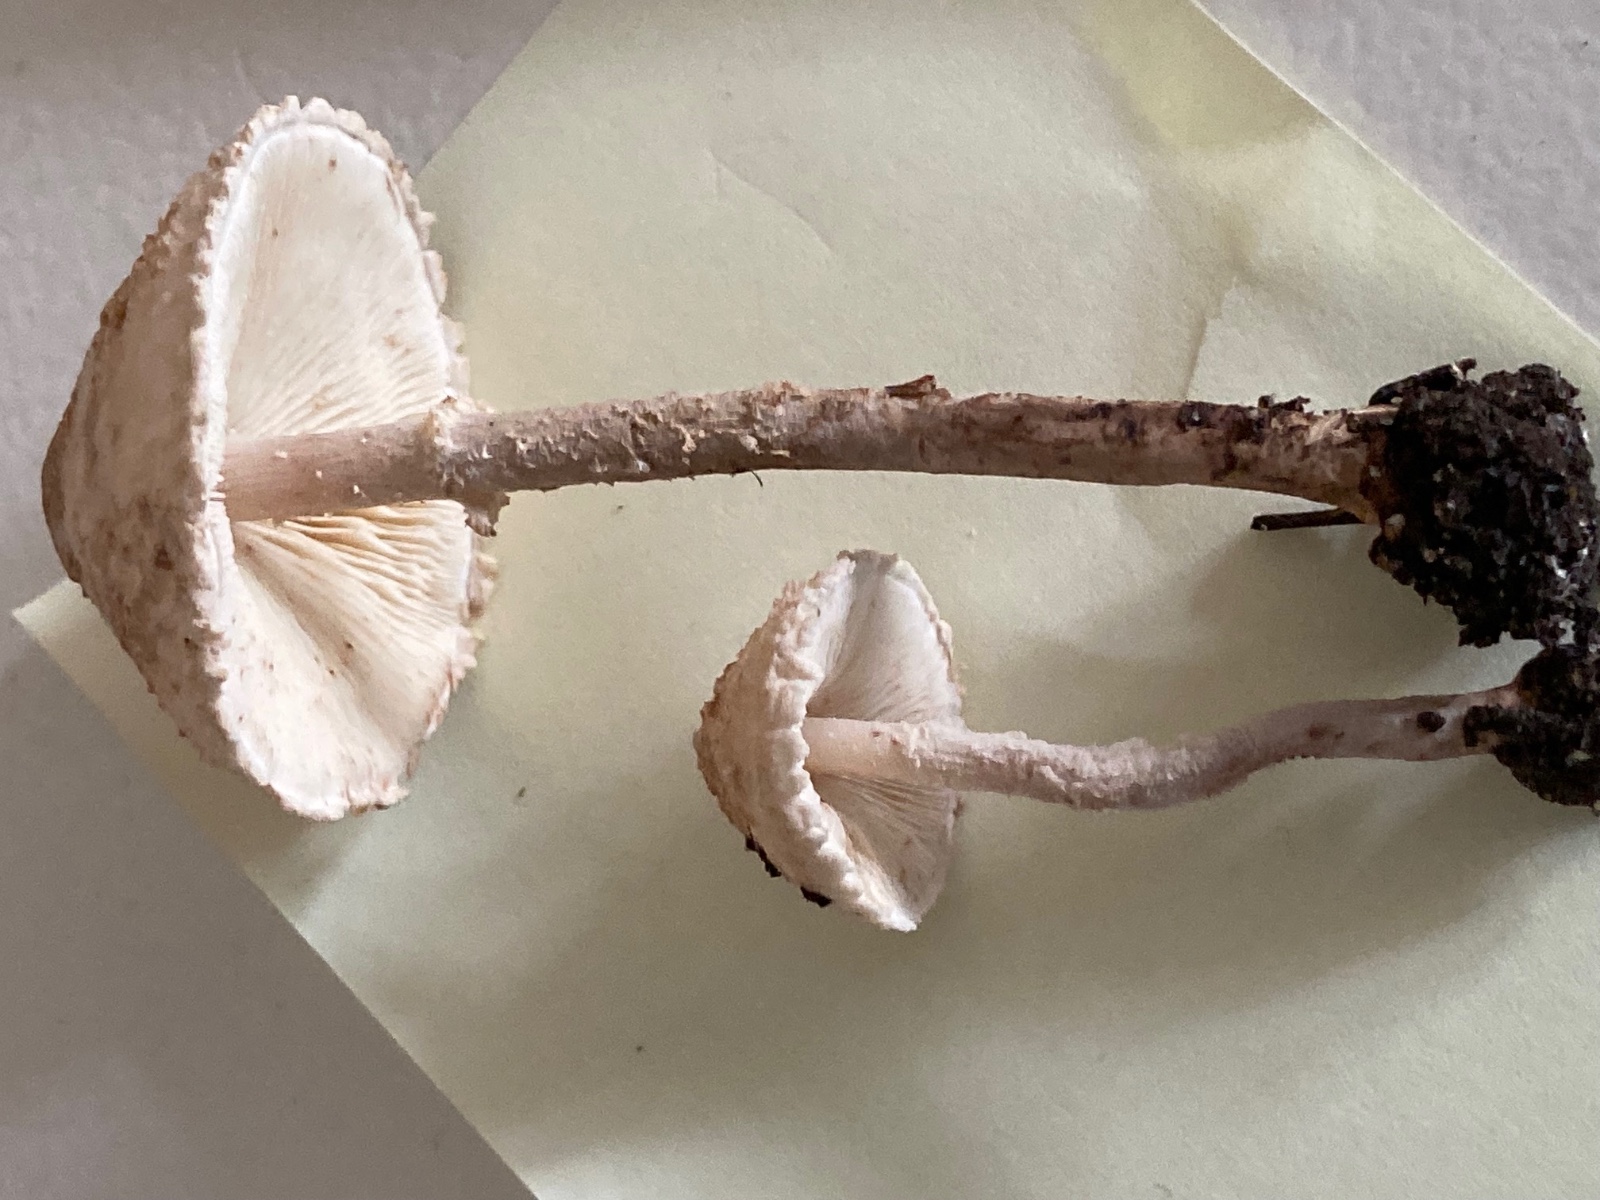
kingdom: Fungi
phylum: Basidiomycota
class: Agaricomycetes
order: Agaricales
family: Agaricaceae
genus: Cystolepiota
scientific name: Cystolepiota adulterina
